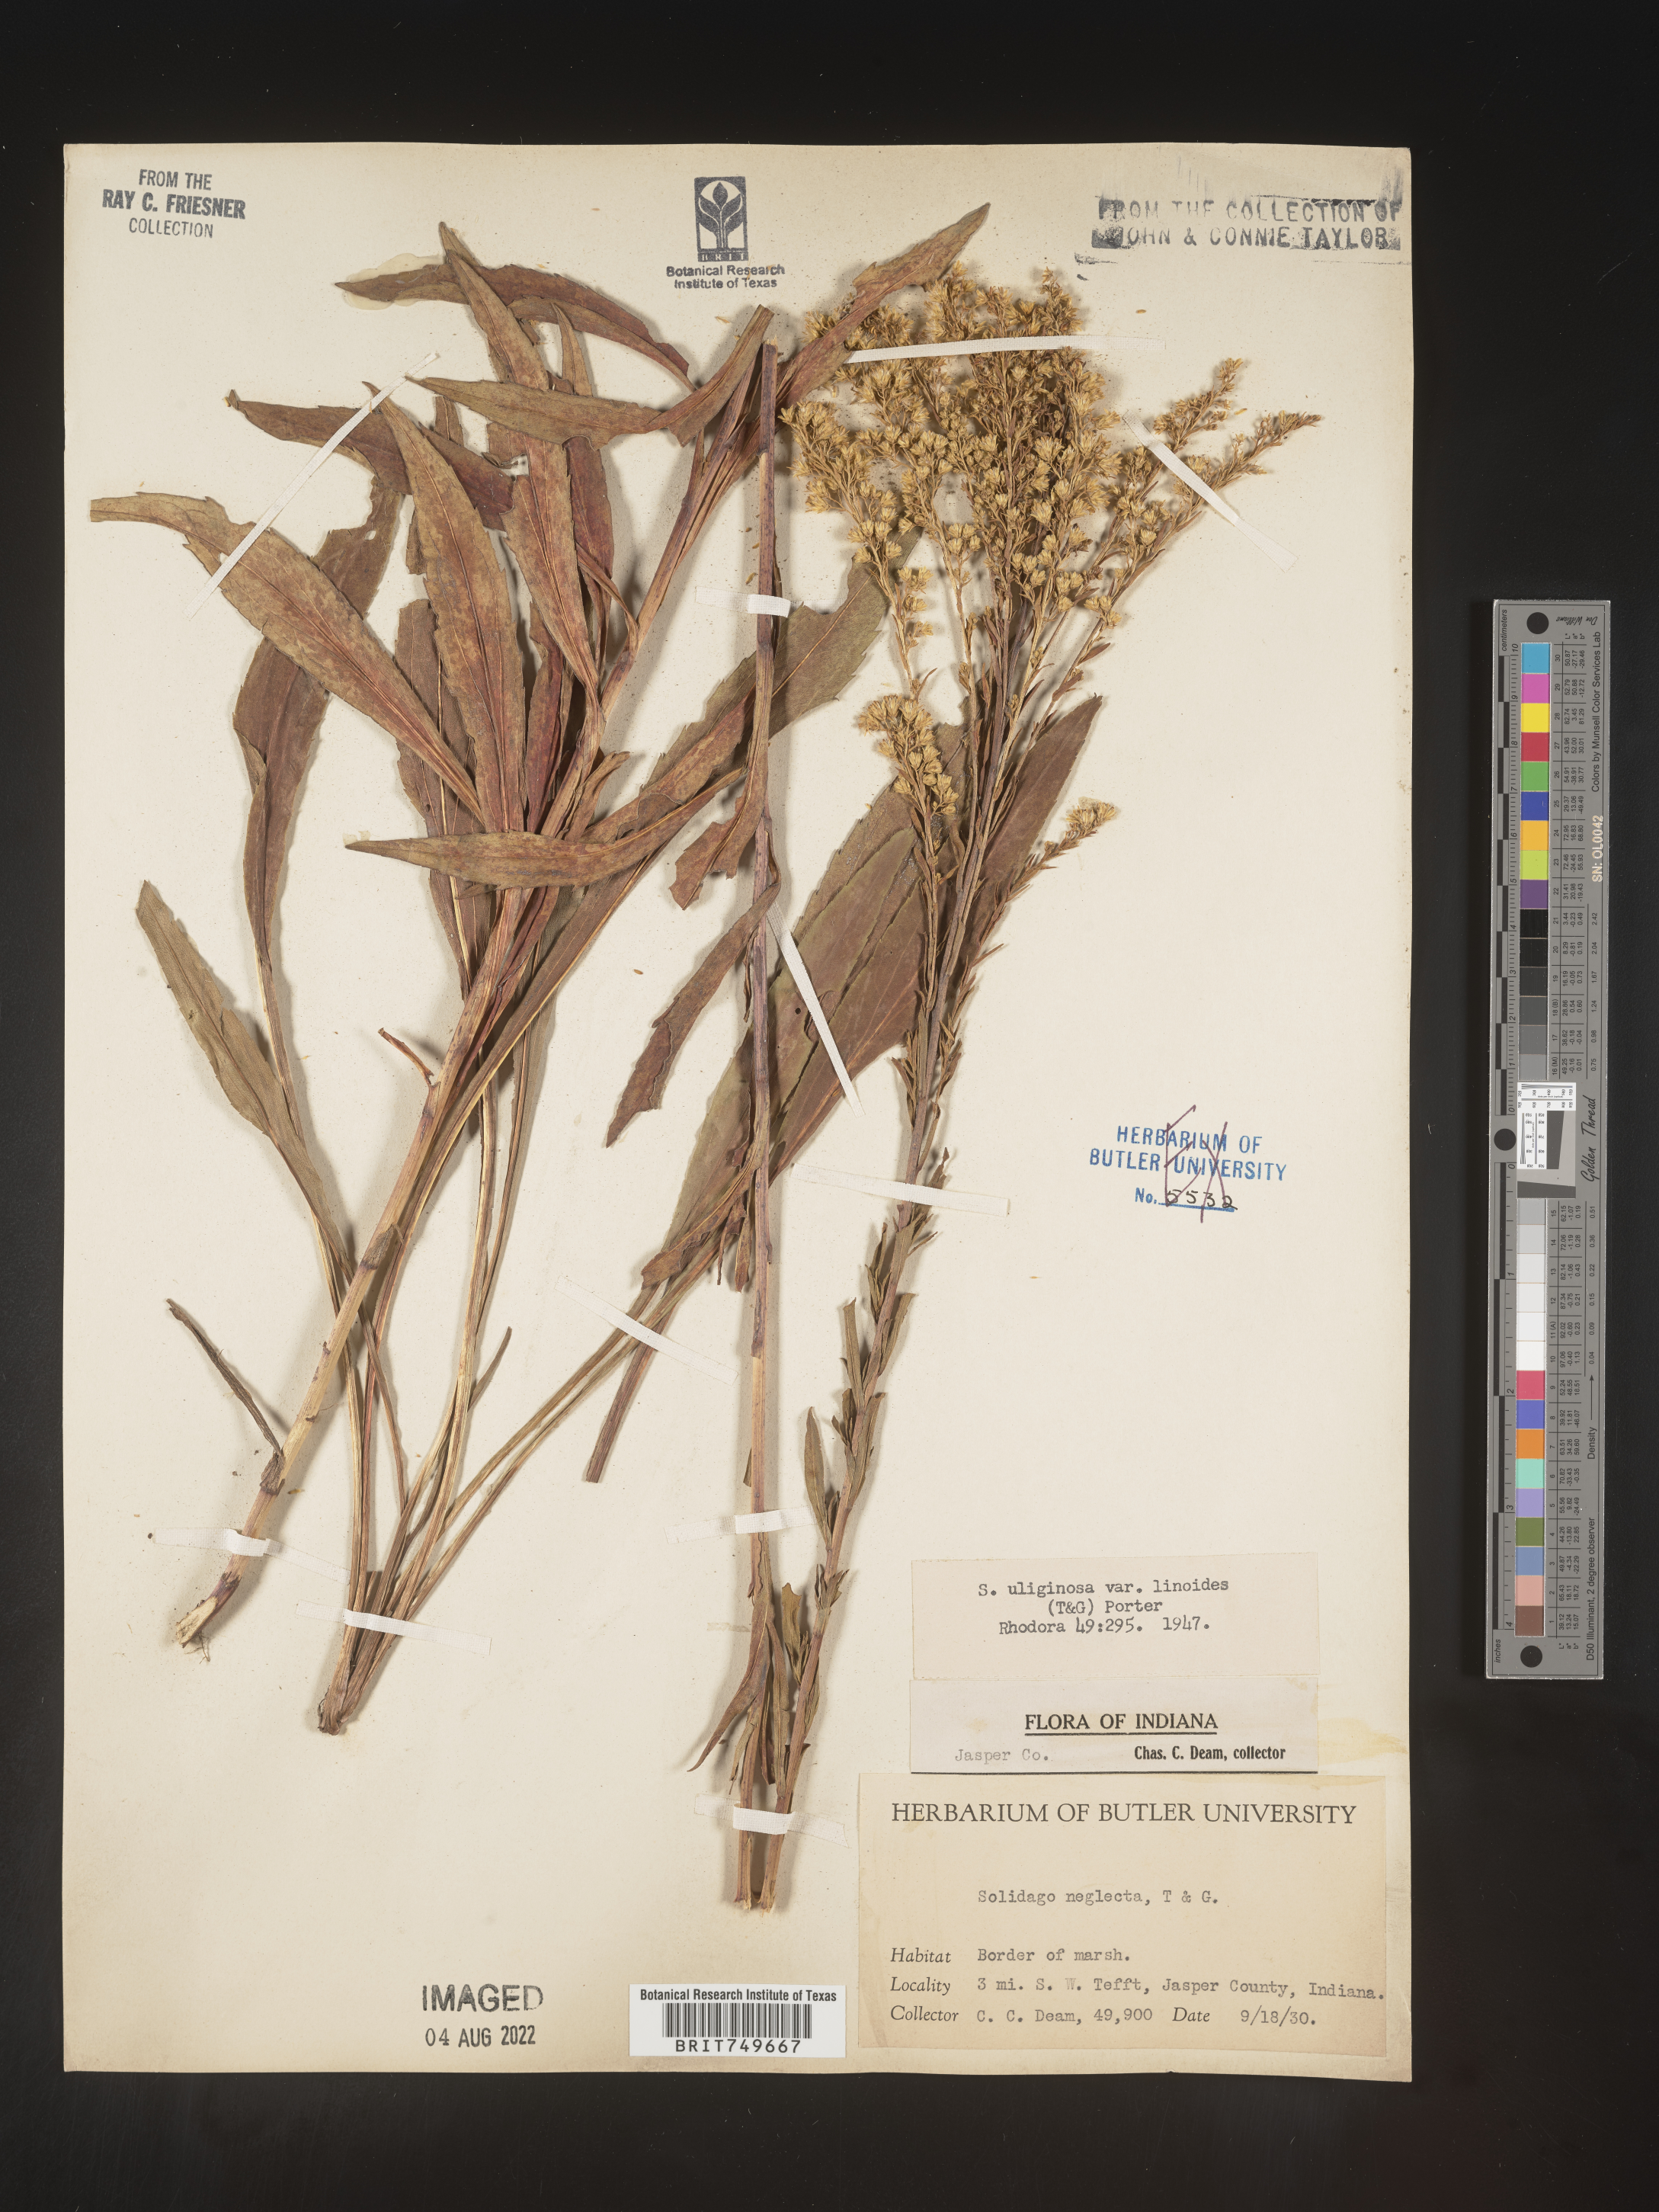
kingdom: Plantae
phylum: Tracheophyta
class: Magnoliopsida
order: Asterales
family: Asteraceae
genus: Solidago
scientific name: Solidago uliginosa
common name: Bog goldenrod
